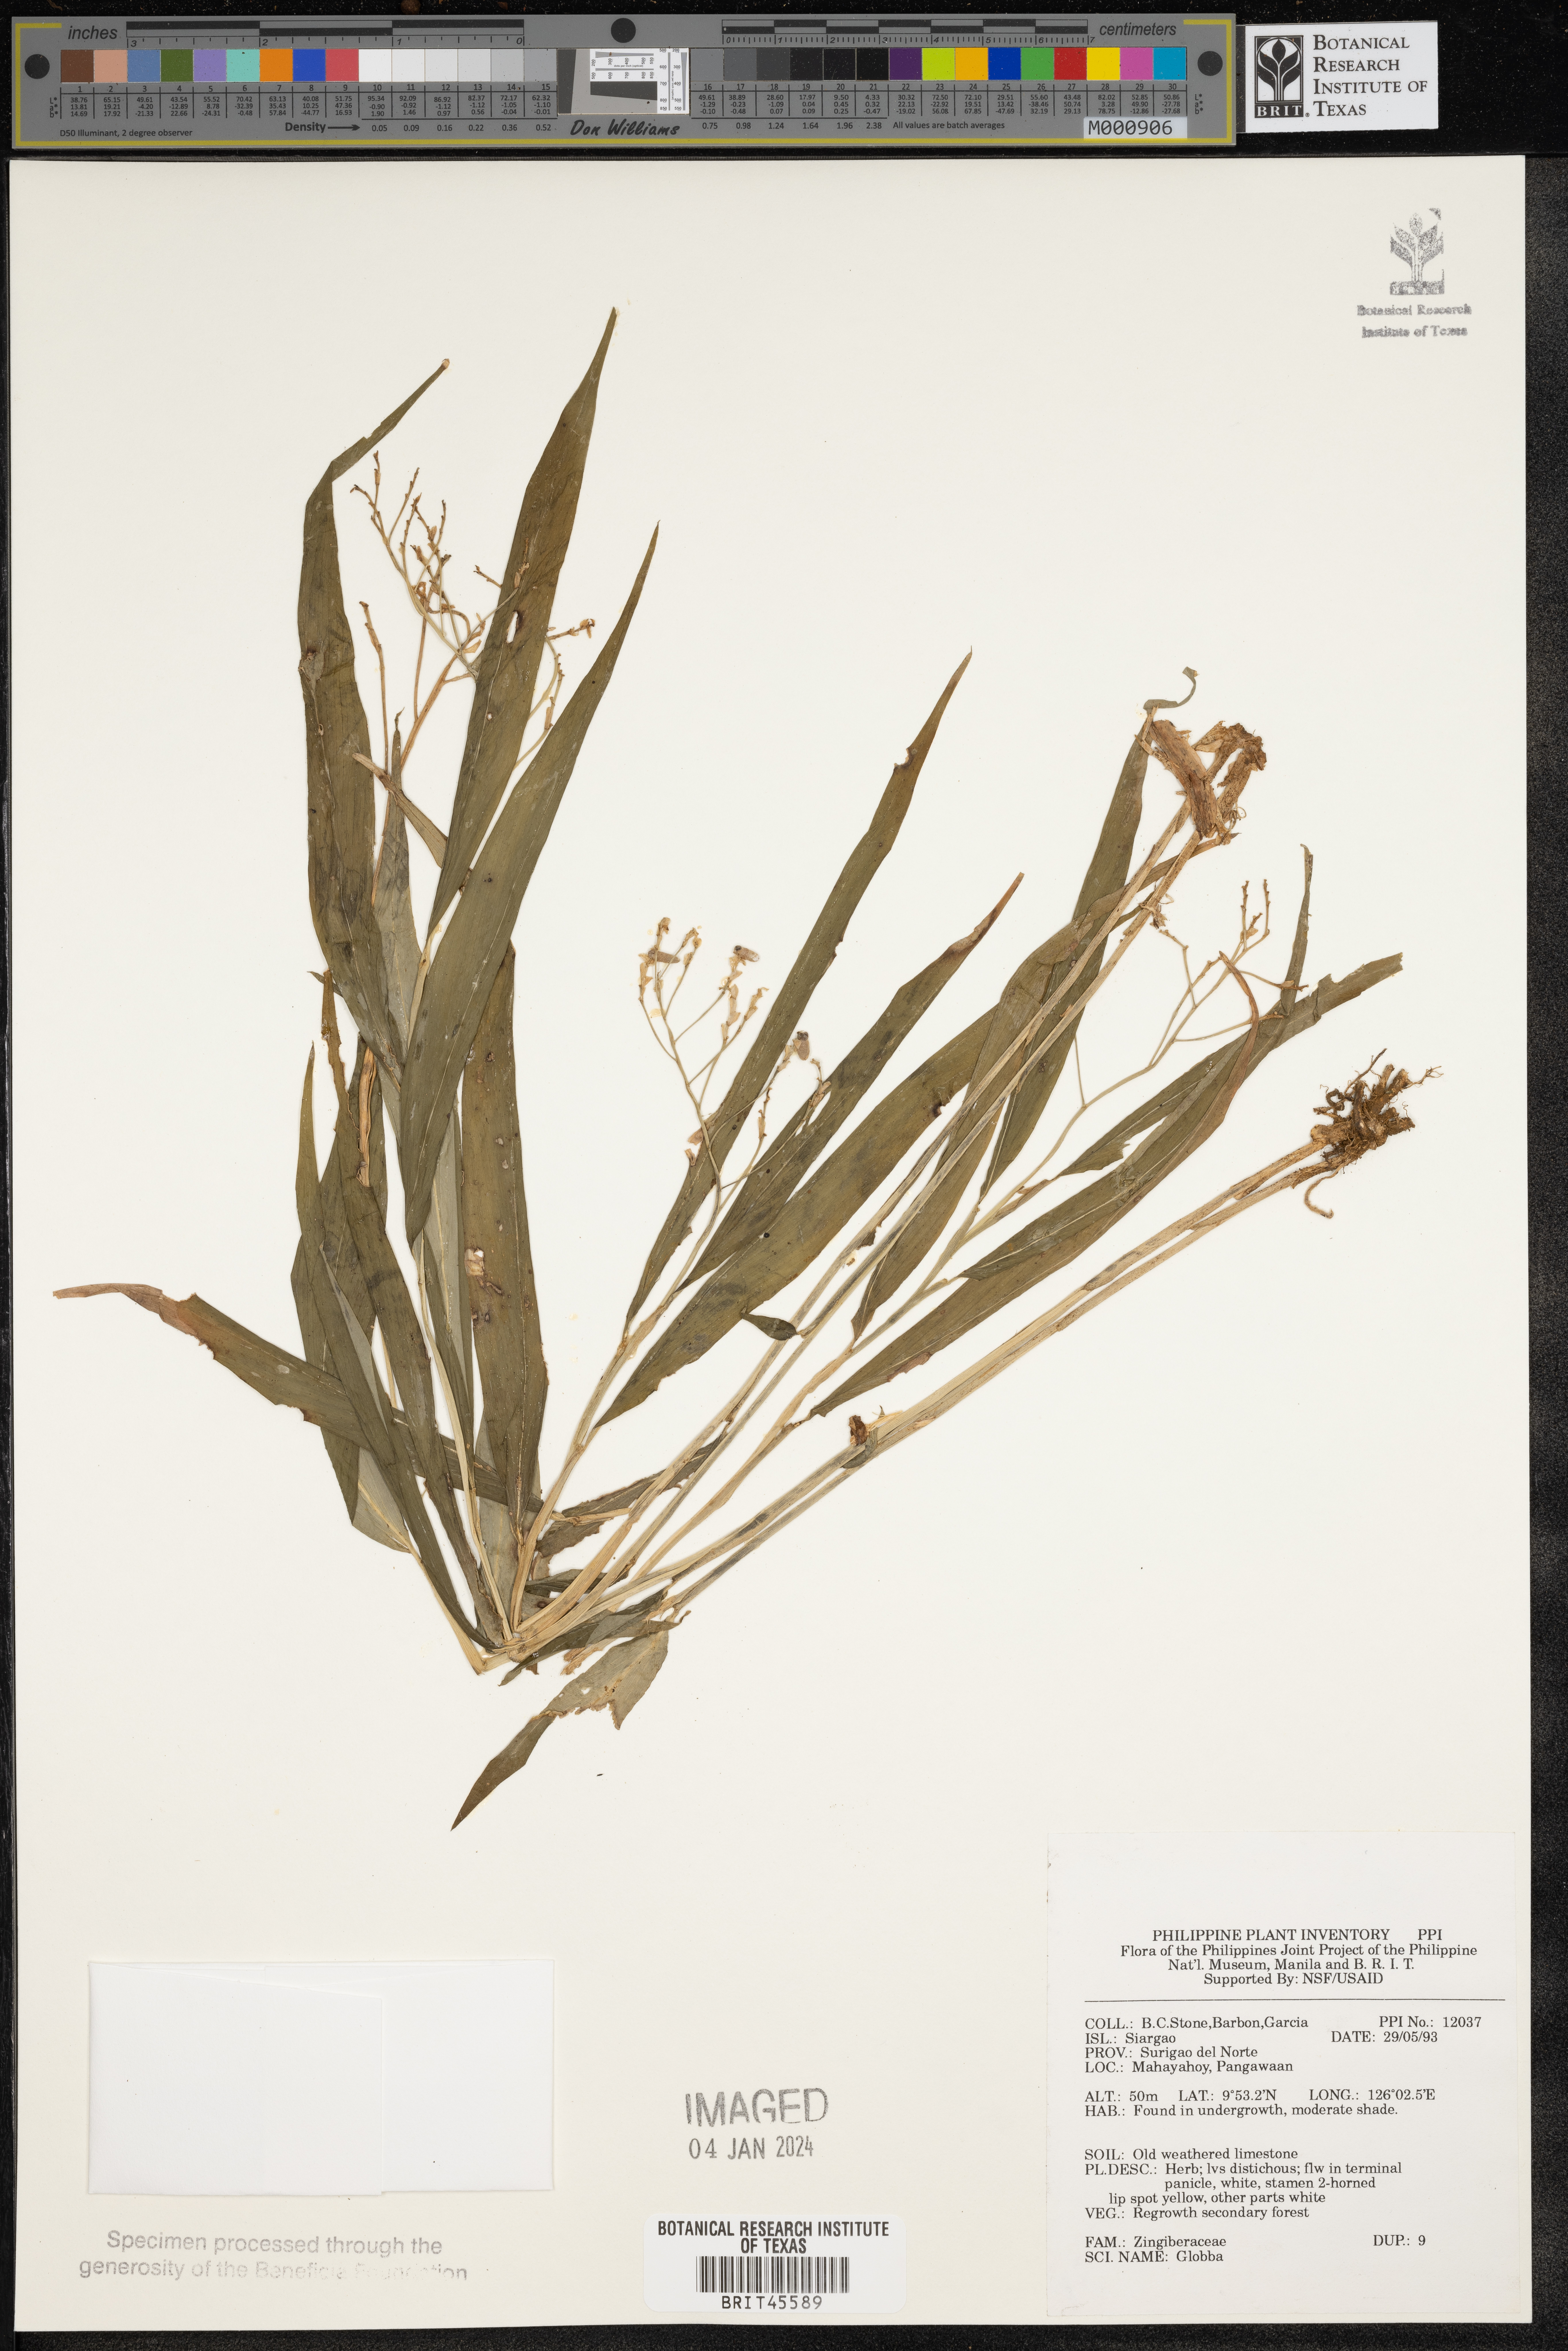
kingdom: Plantae
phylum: Tracheophyta
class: Liliopsida
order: Zingiberales
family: Zingiberaceae
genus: Globba
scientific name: Globba
